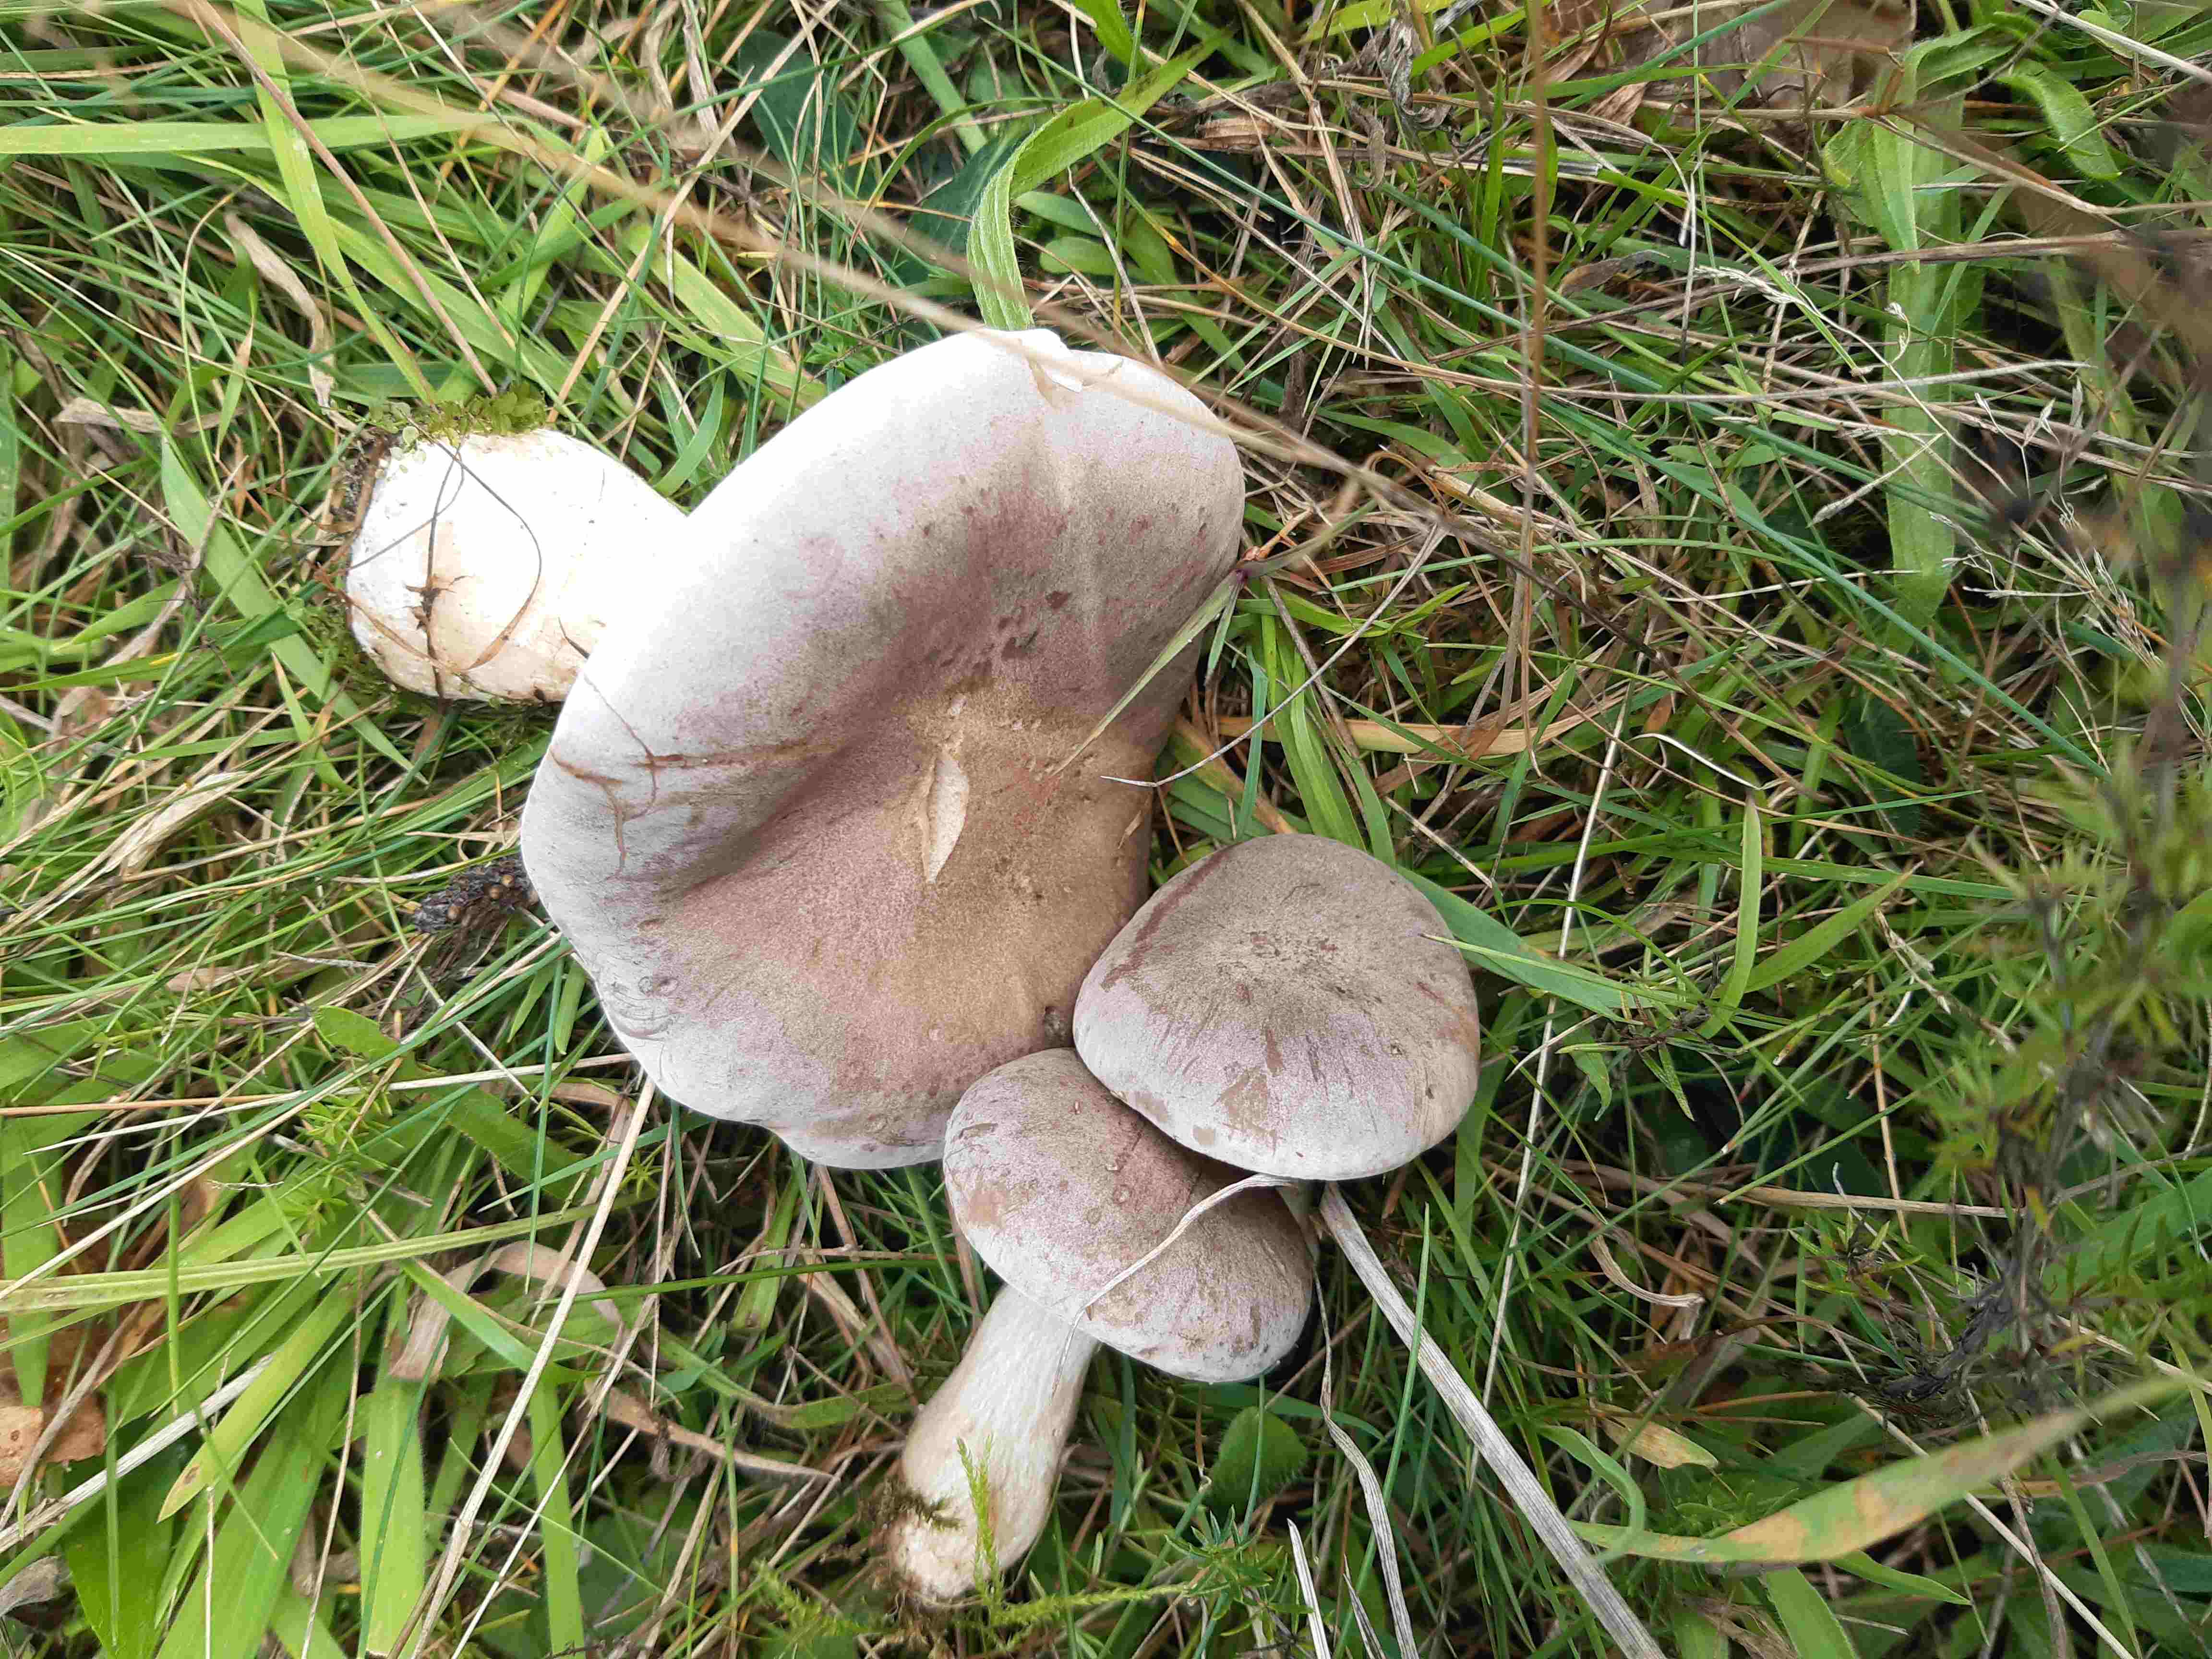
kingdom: Fungi
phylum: Basidiomycota
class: Agaricomycetes
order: Agaricales
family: Tricholomataceae
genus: Lepista
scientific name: Lepista panaeolus
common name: marmoreret hekseringshat
